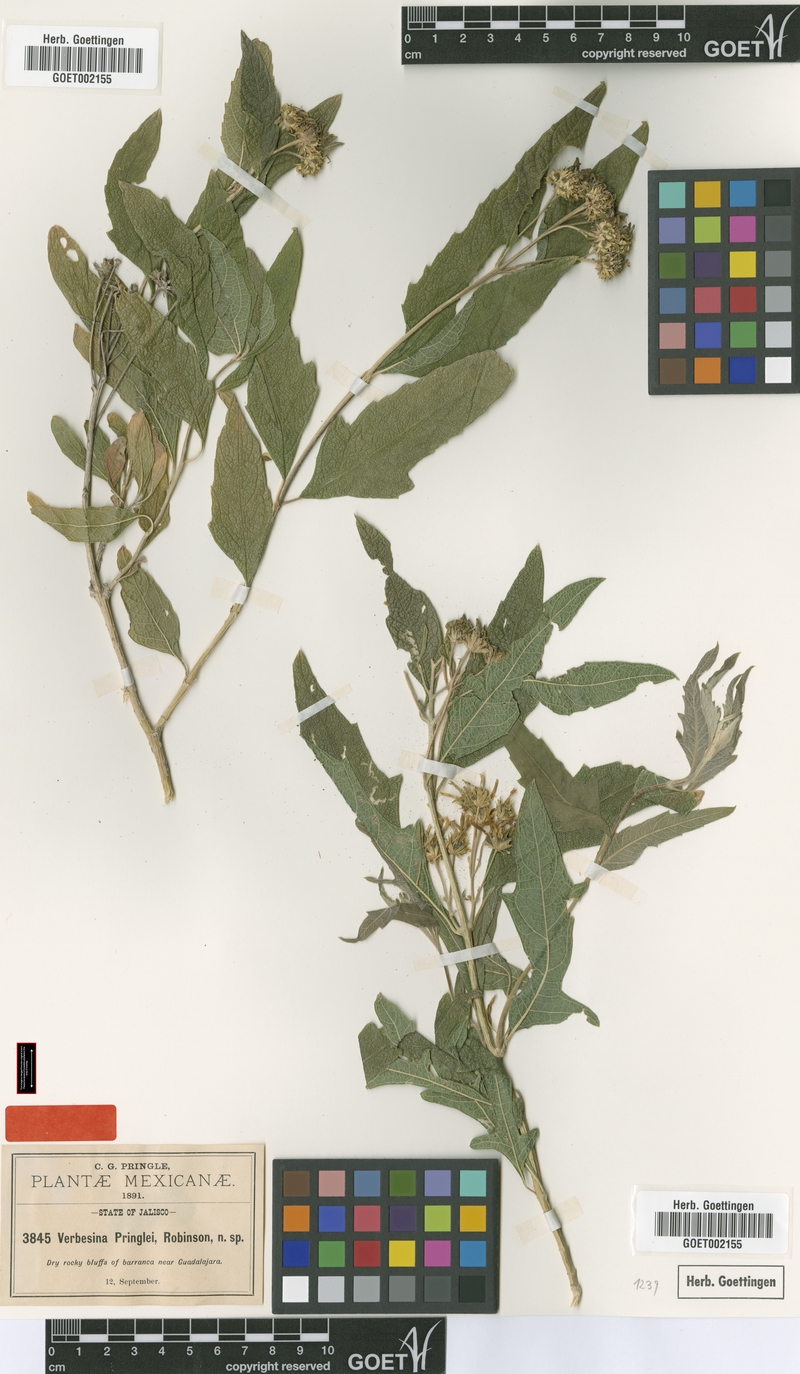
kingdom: Plantae
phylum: Tracheophyta
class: Magnoliopsida
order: Asterales
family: Asteraceae
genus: Verbesina
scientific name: Verbesina serrata
